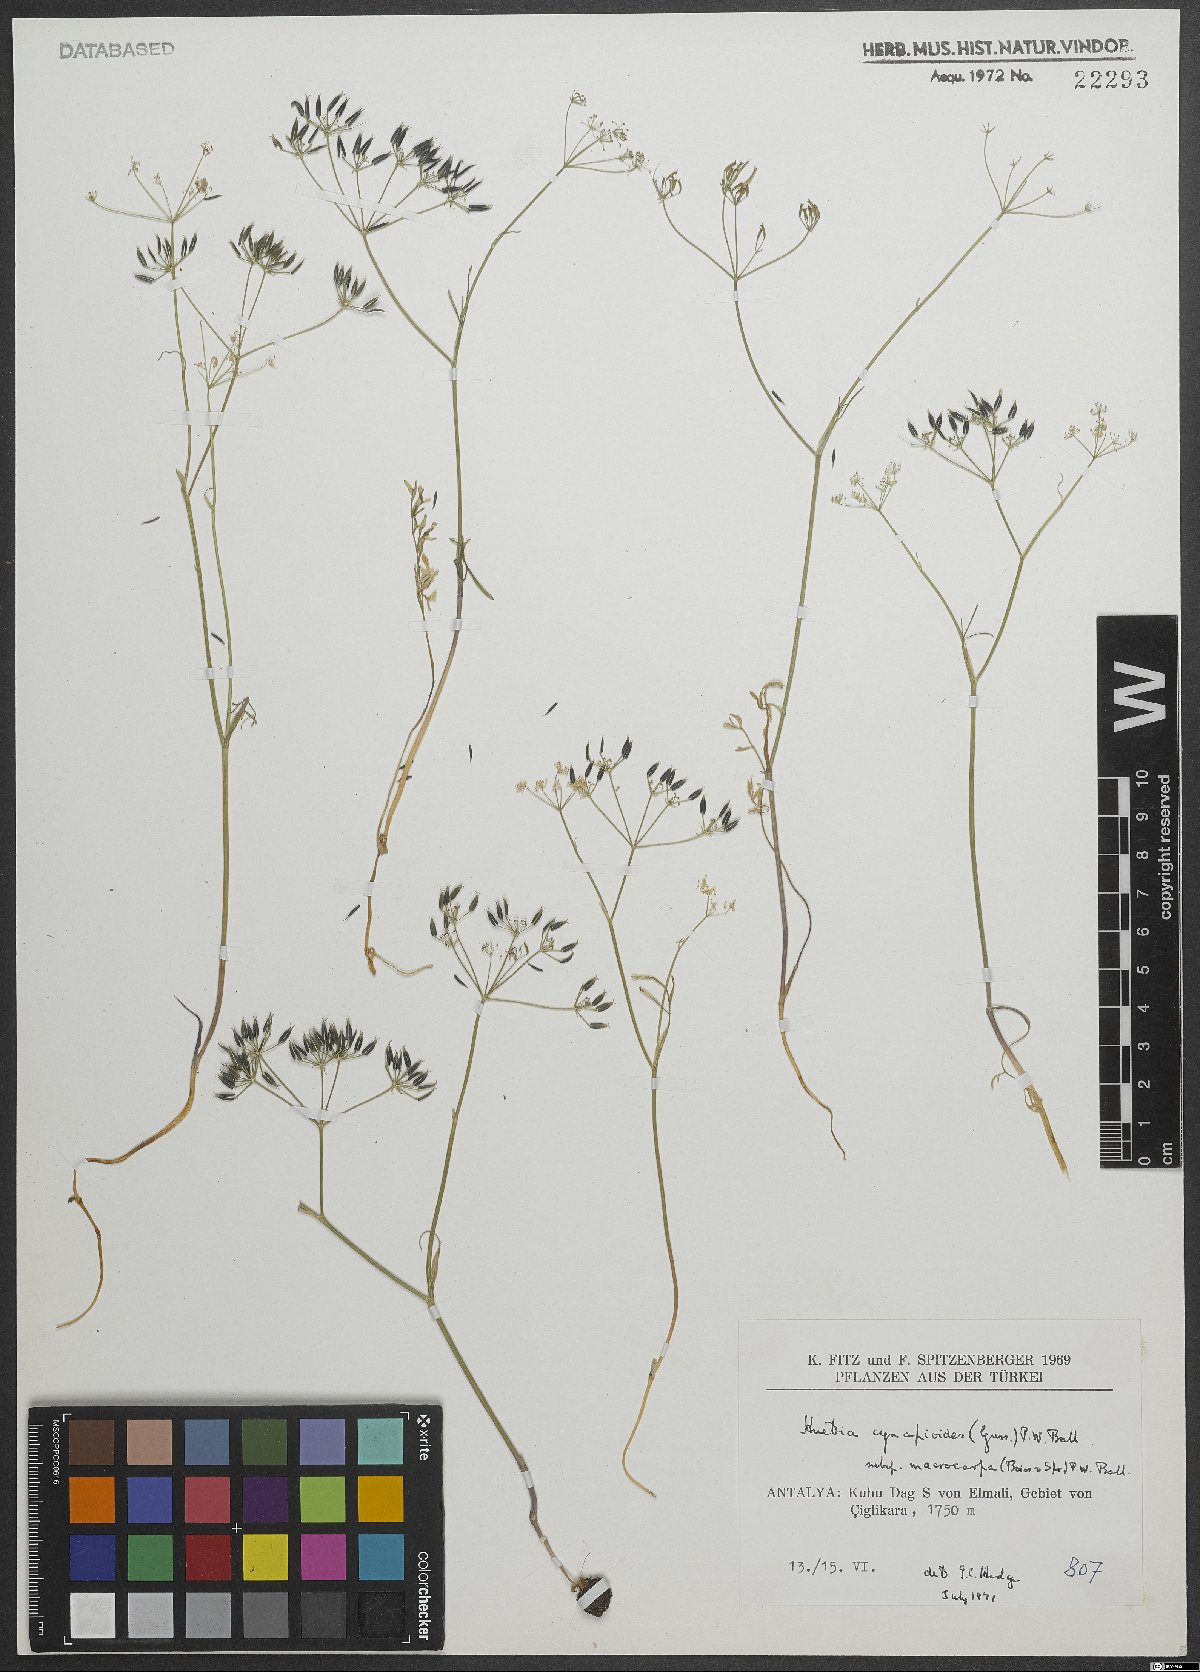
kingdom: Plantae
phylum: Tracheophyta
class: Magnoliopsida
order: Apiales
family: Apiaceae
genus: Geocaryum
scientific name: Geocaryum cynapioides
